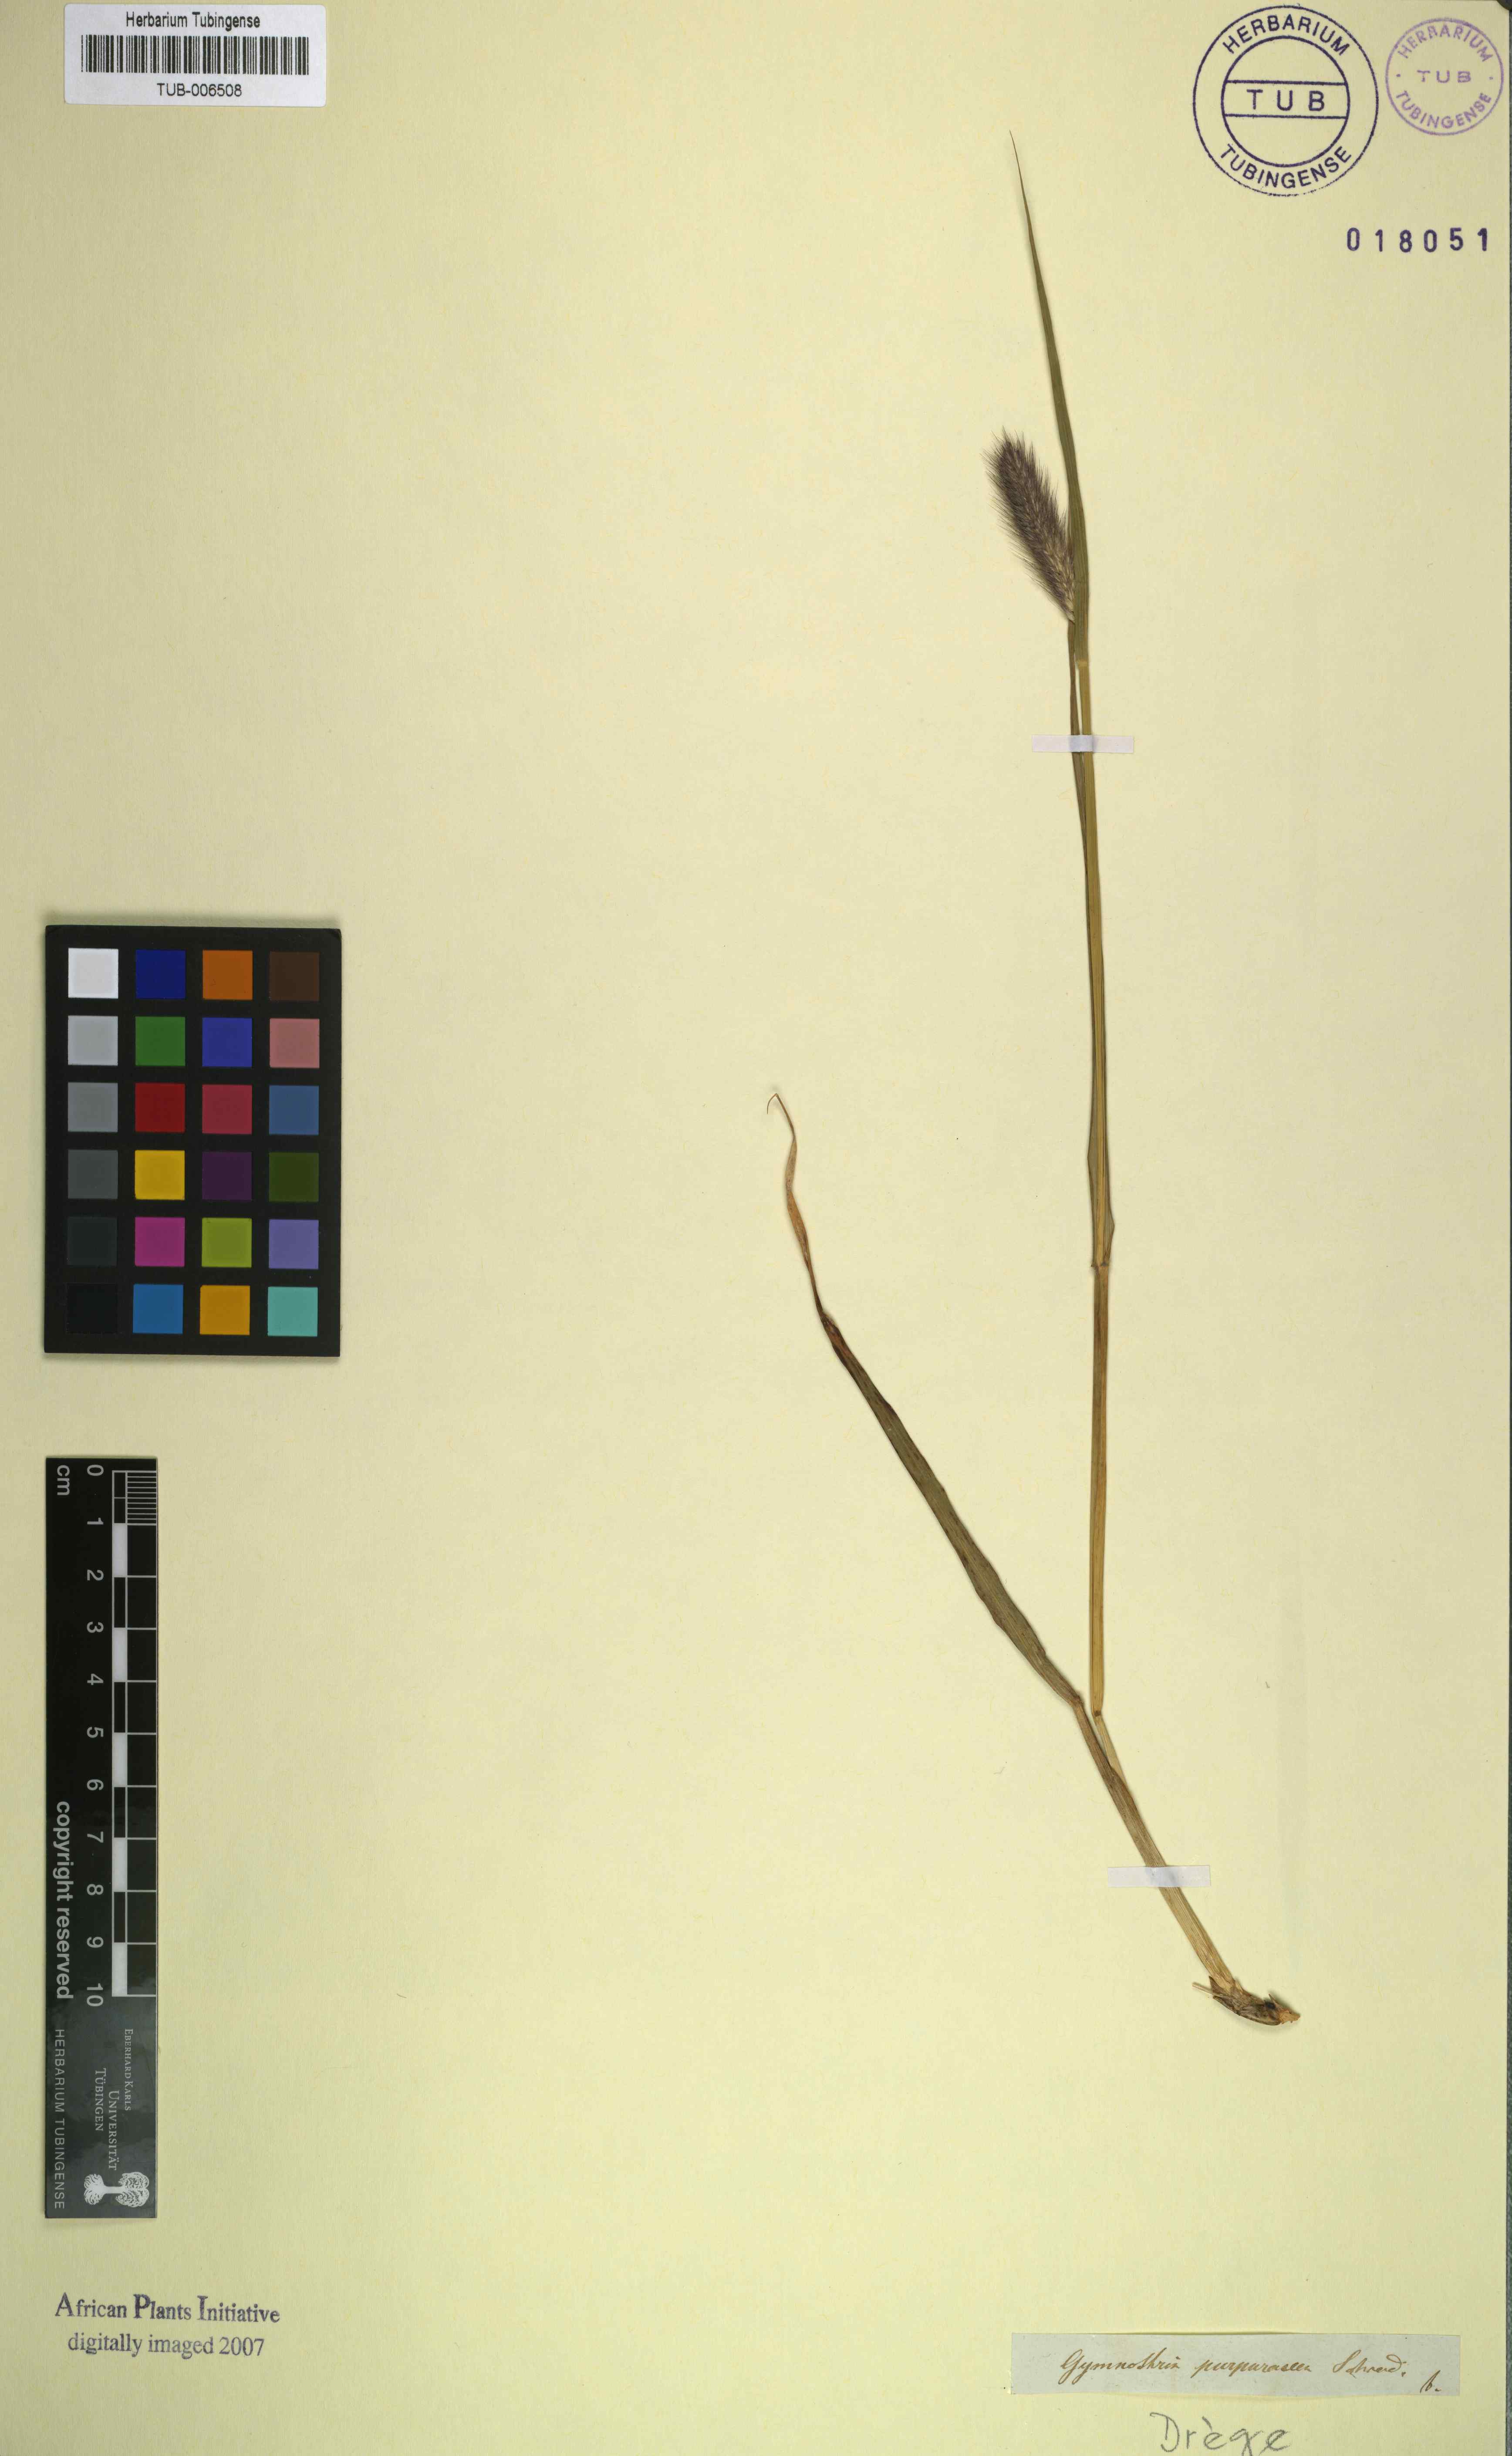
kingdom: Plantae
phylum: Tracheophyta
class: Liliopsida
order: Poales
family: Poaceae
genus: Cenchrus
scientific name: Cenchrus alopecuroides
